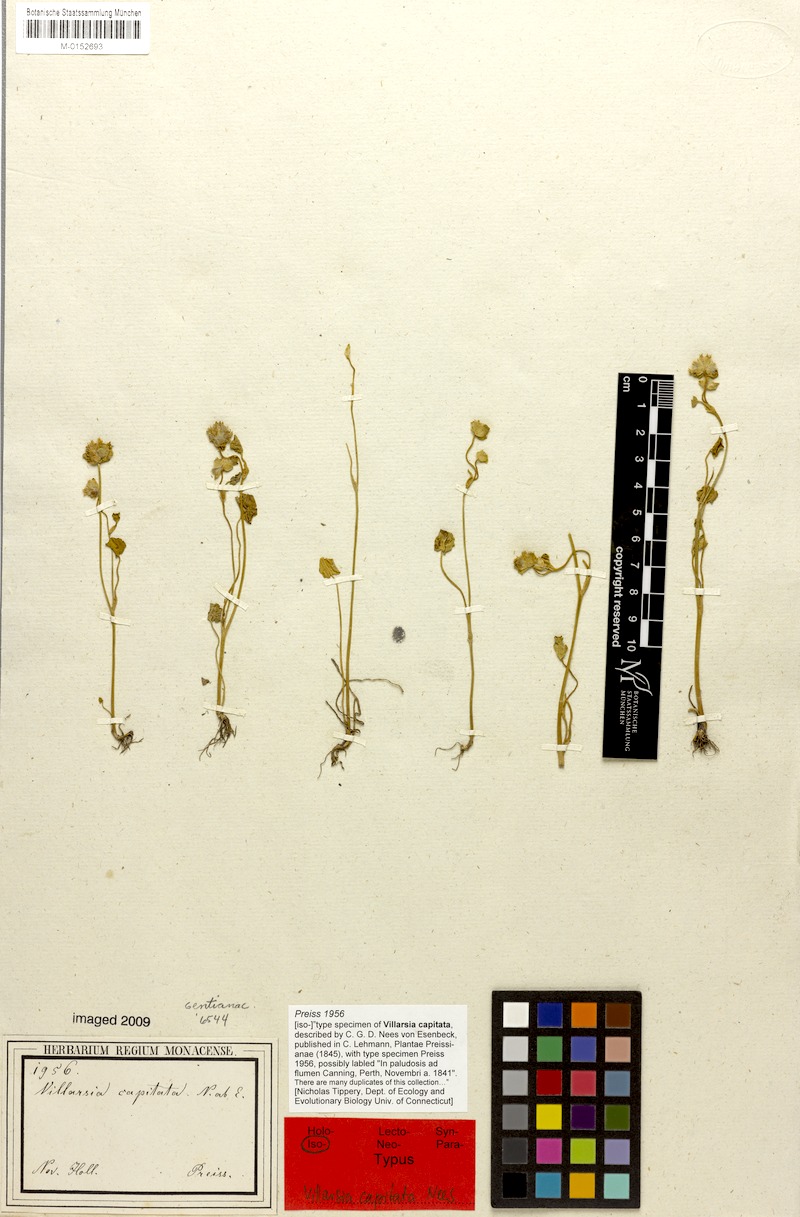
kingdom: Plantae
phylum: Tracheophyta
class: Magnoliopsida
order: Asterales
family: Menyanthaceae
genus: Liparophyllum
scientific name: Liparophyllum capitatum
